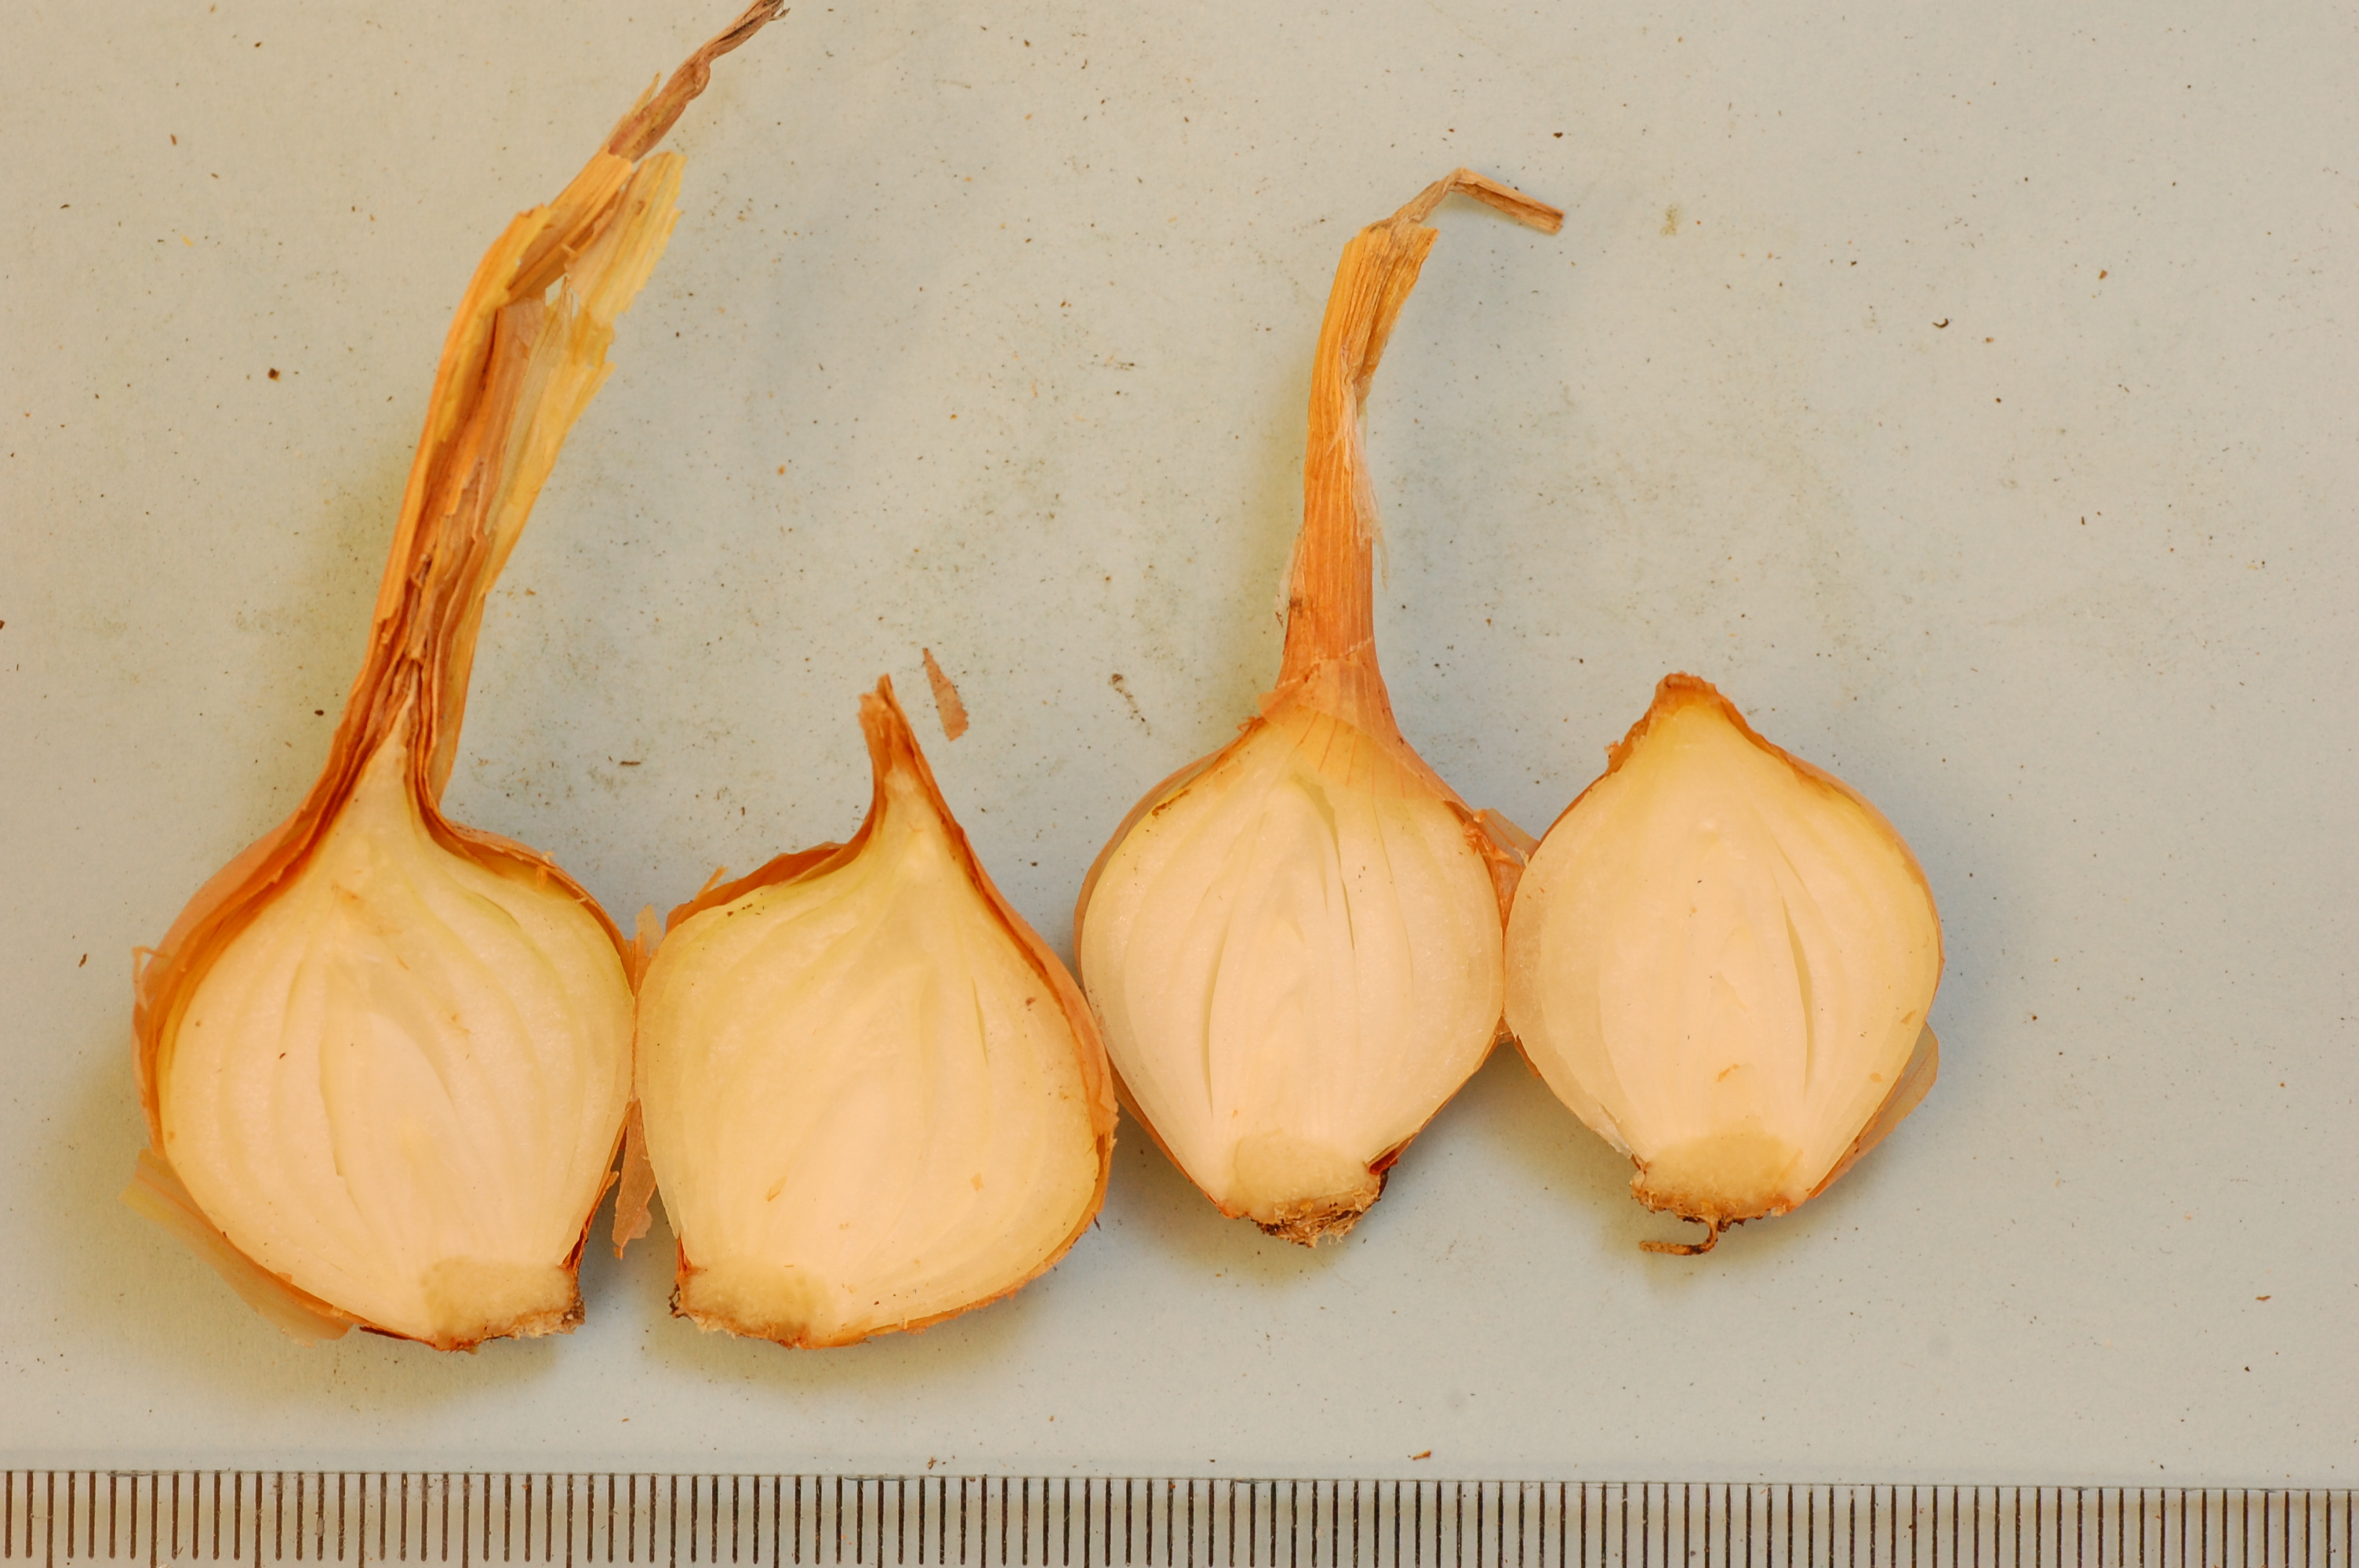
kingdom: Plantae
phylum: Tracheophyta
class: Liliopsida
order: Asparagales
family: Amaryllidaceae
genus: Allium
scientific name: Allium cepa
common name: Onion
